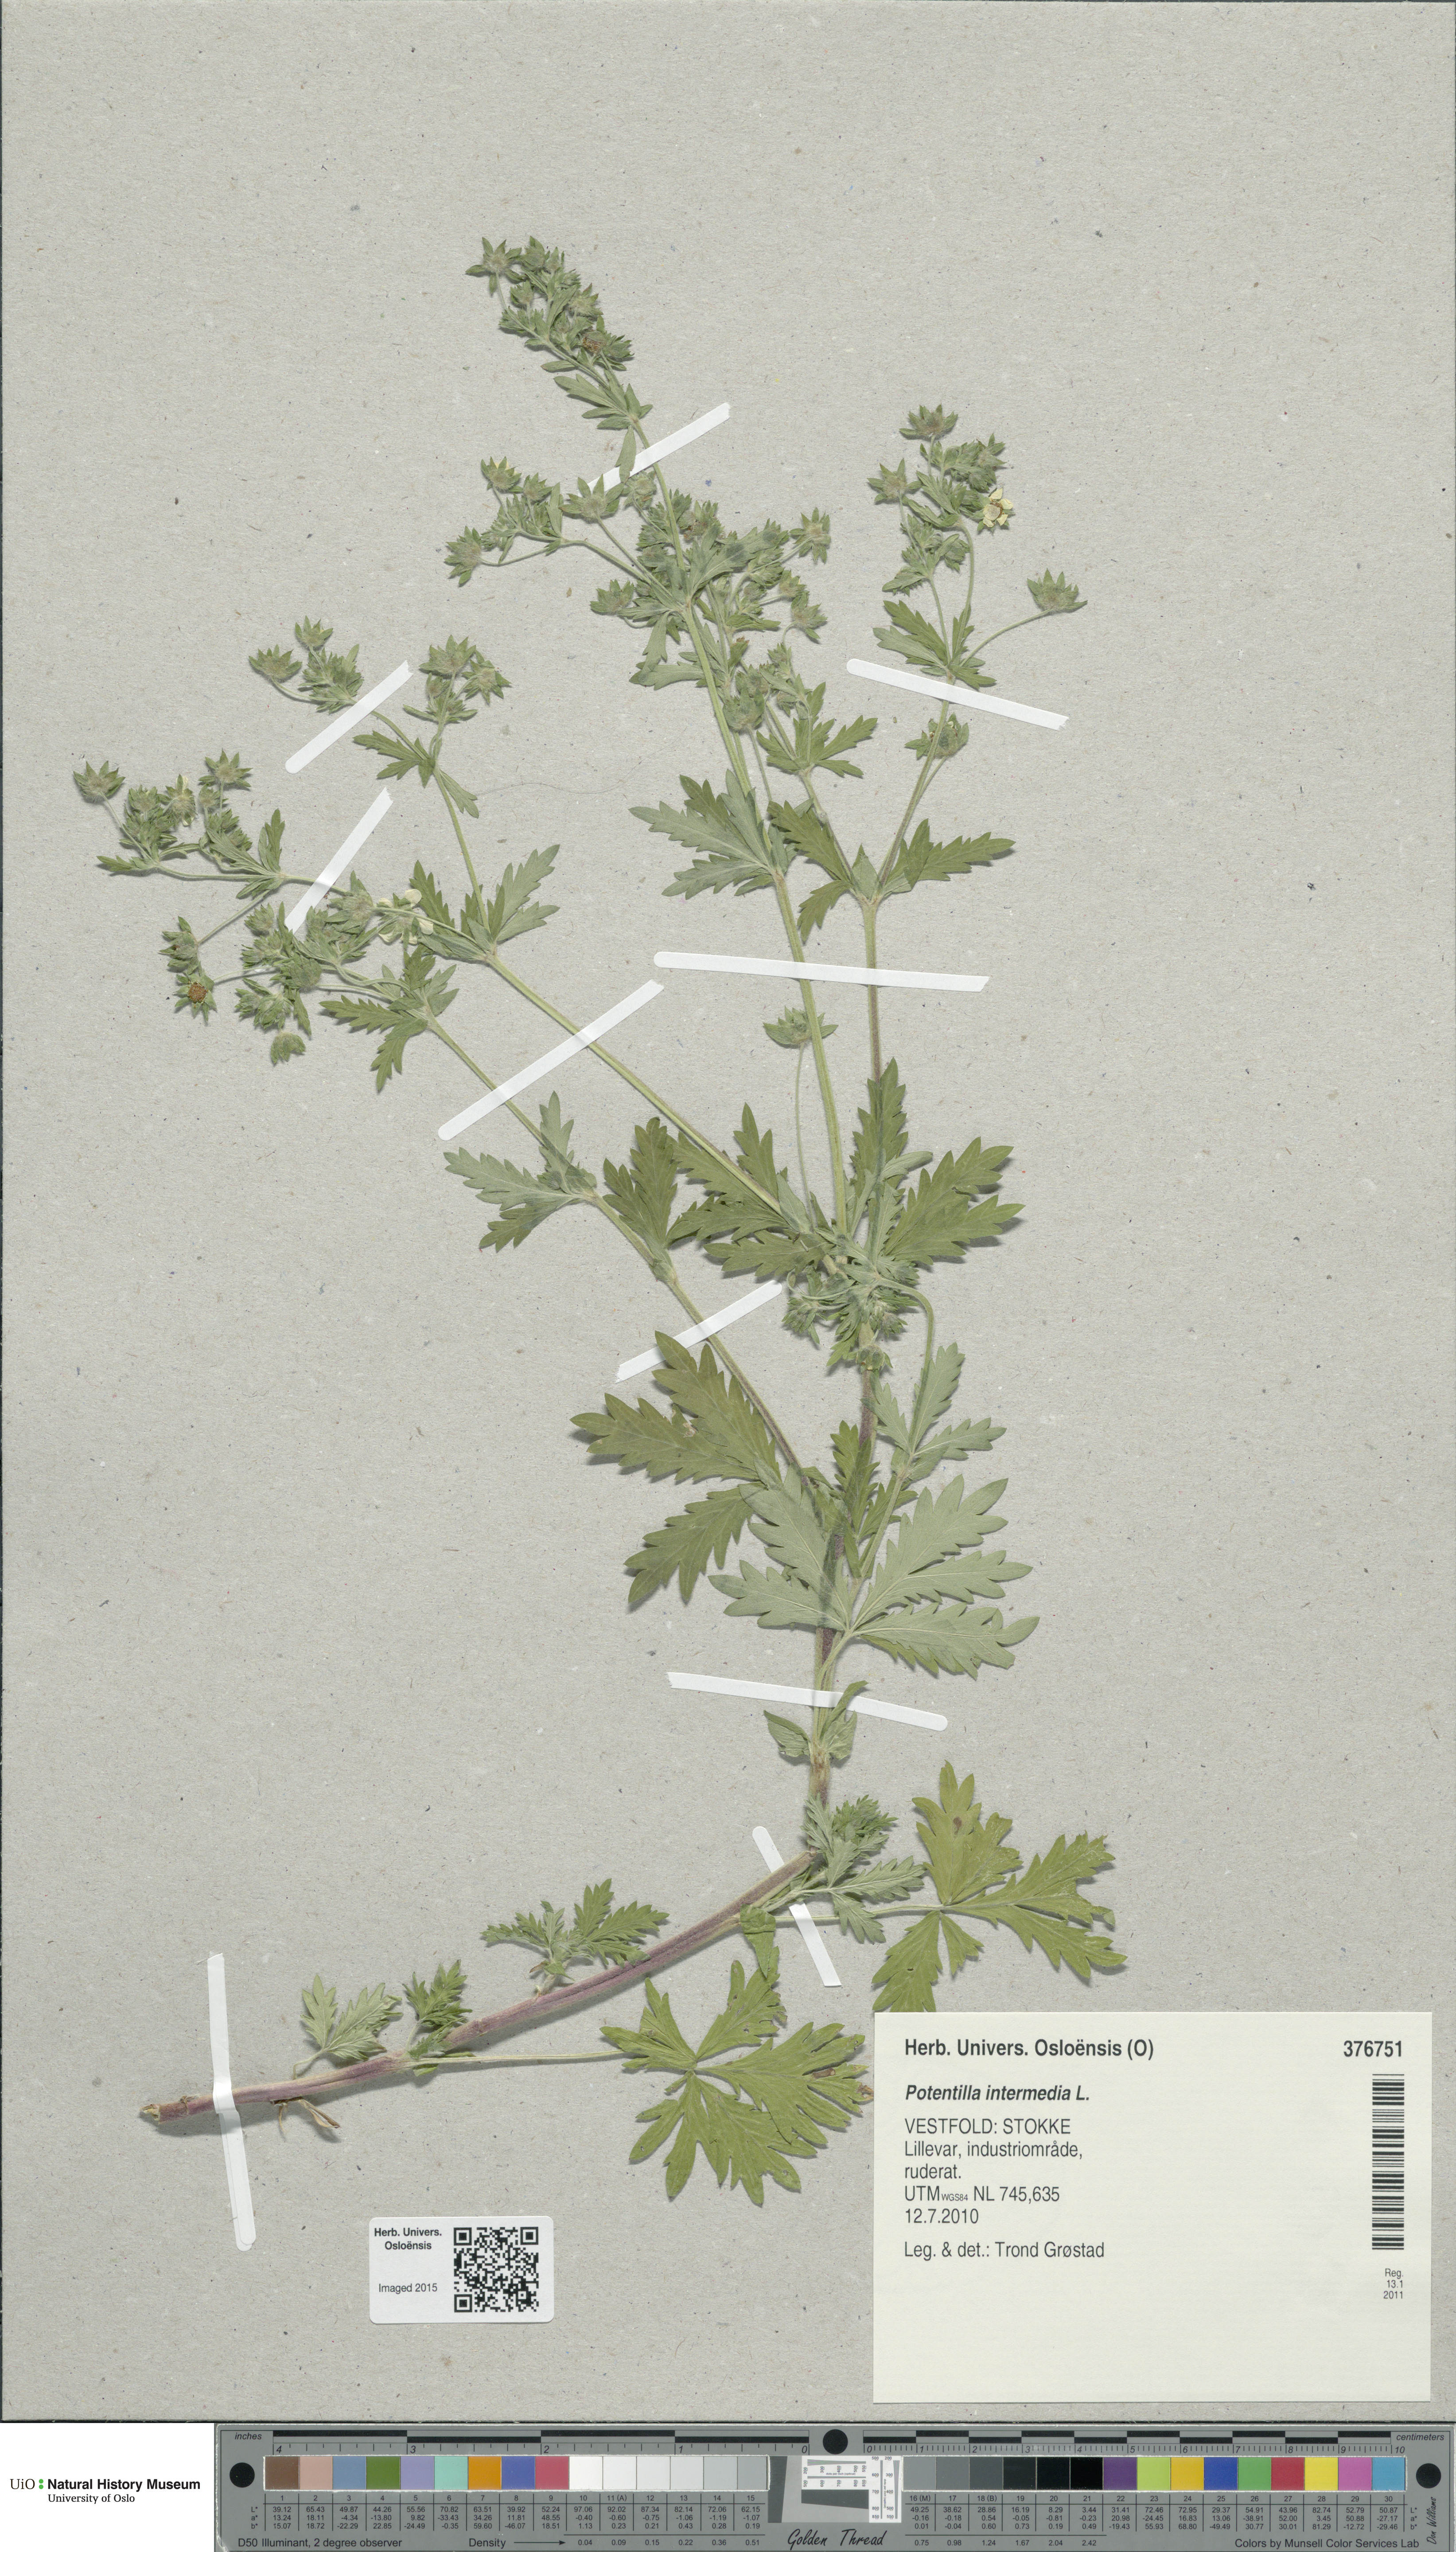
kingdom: Plantae
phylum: Tracheophyta
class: Magnoliopsida
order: Rosales
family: Rosaceae
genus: Potentilla
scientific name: Potentilla intermedia
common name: Downy cinquefoil
